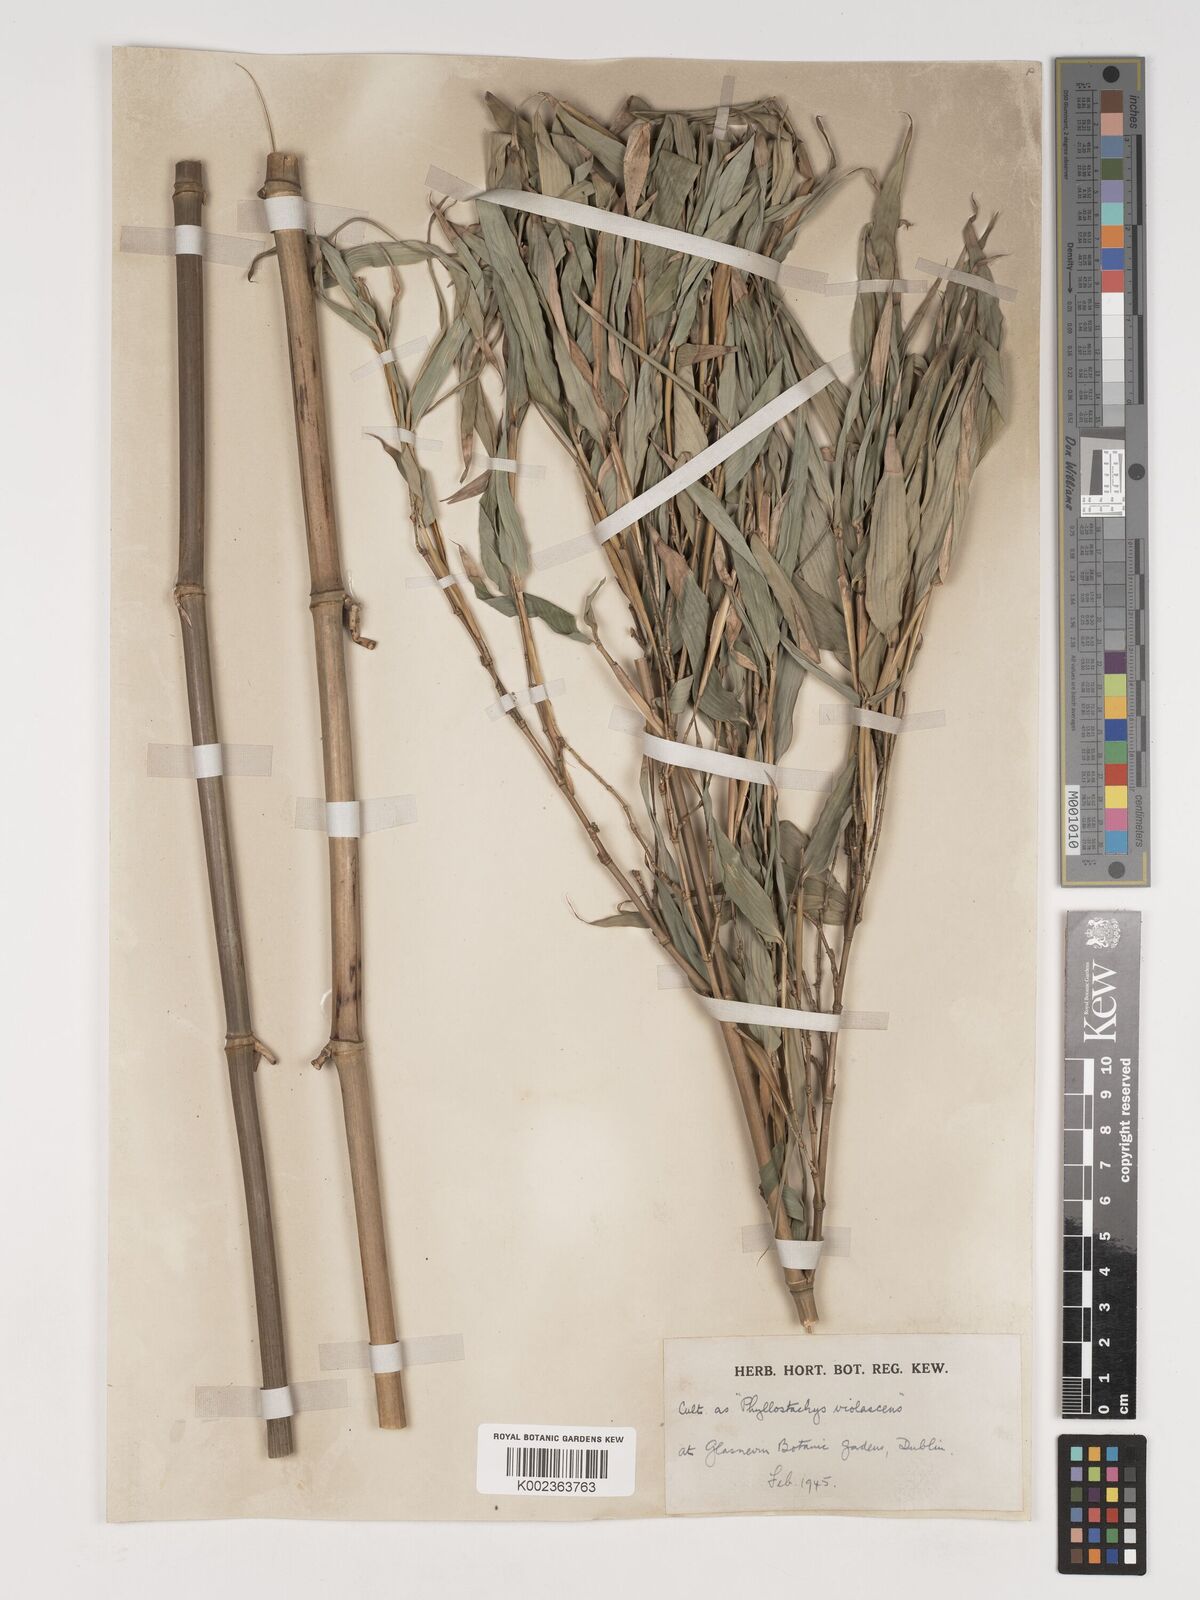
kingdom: Plantae
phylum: Tracheophyta
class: Liliopsida
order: Poales
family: Poaceae
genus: Phyllostachys
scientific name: Phyllostachys reticulata
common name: Bamboo
